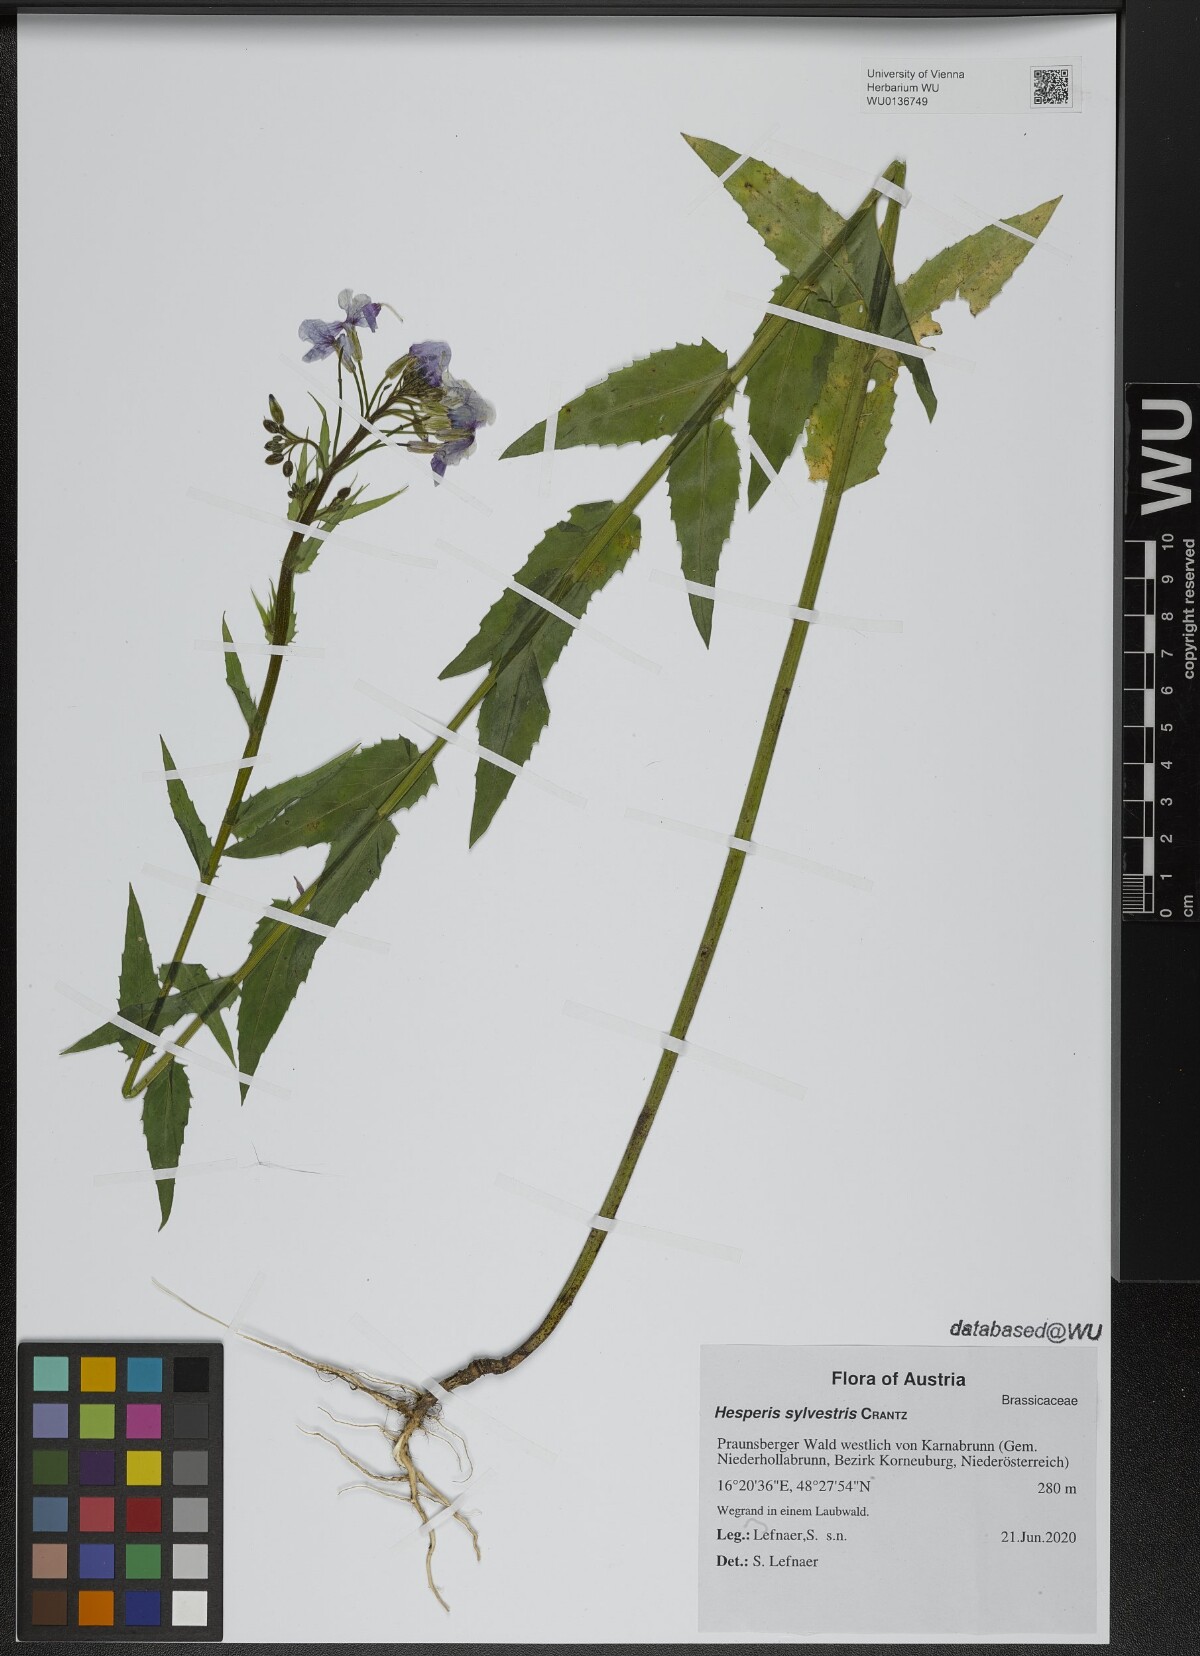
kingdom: Plantae
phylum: Tracheophyta
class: Magnoliopsida
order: Brassicales
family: Brassicaceae
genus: Hesperis
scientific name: Hesperis sylvestris
